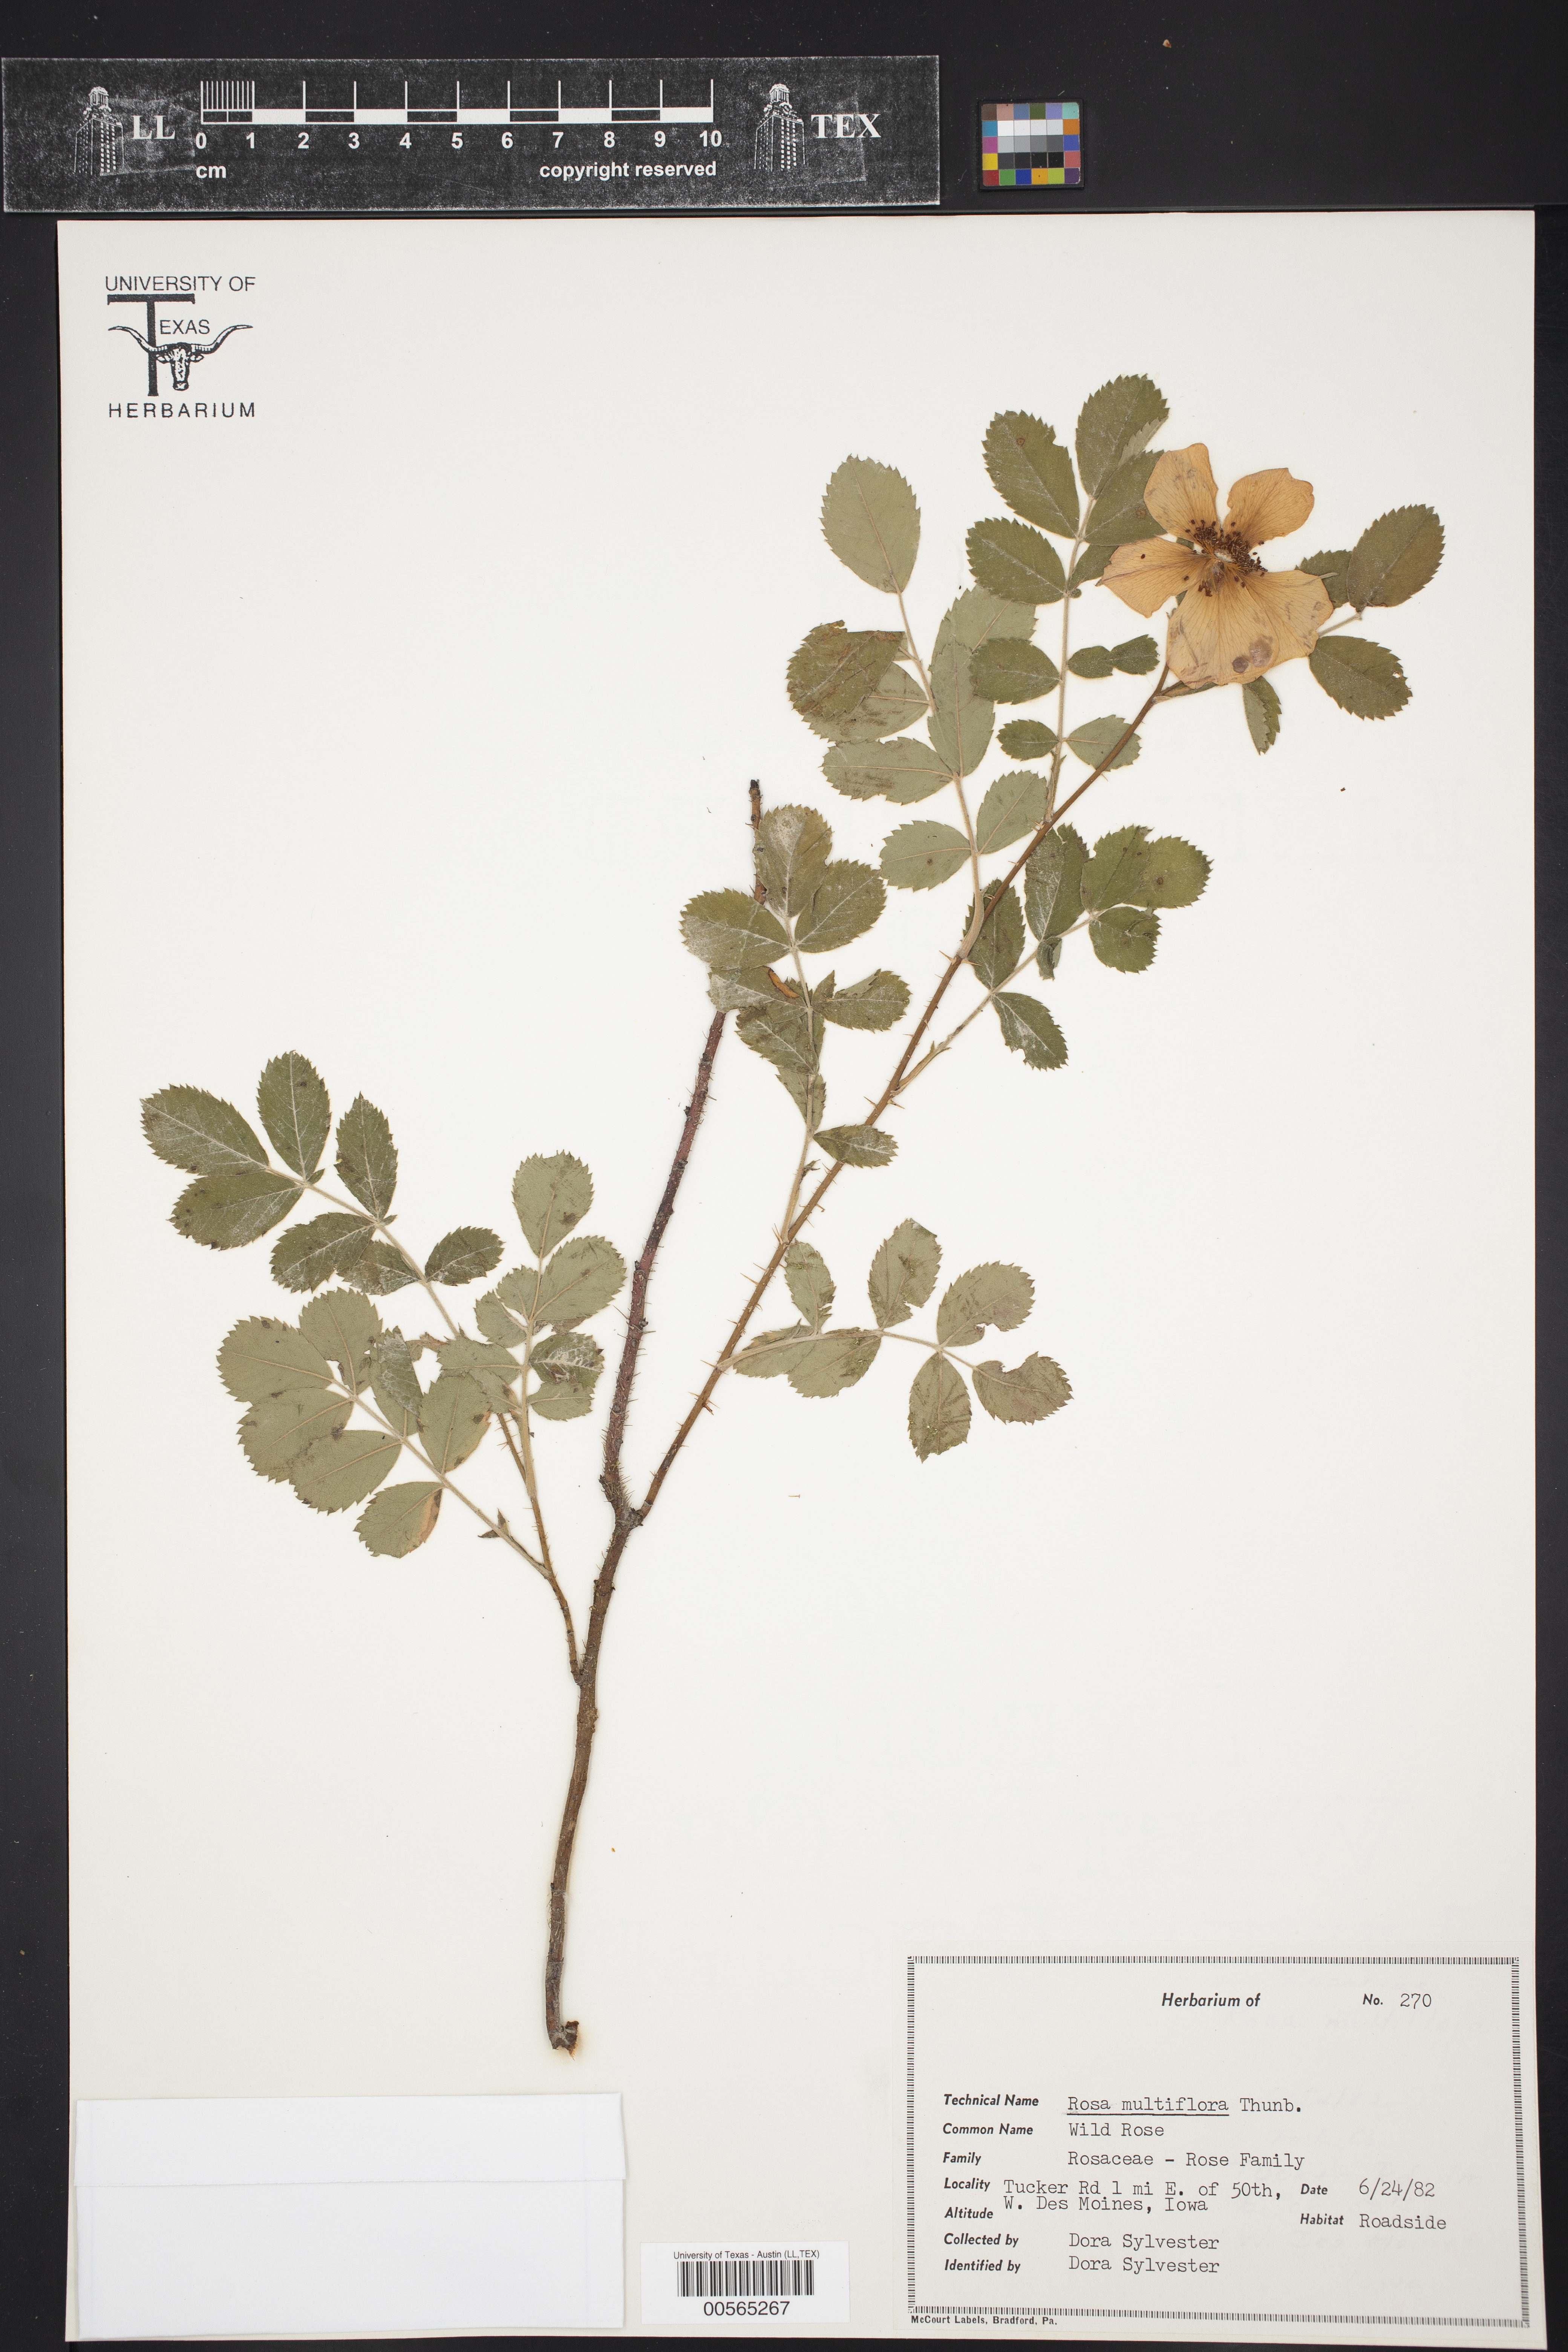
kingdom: Plantae
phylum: Tracheophyta
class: Magnoliopsida
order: Rosales
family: Rosaceae
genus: Rosa
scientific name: Rosa multiflora
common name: Multiflora rose
